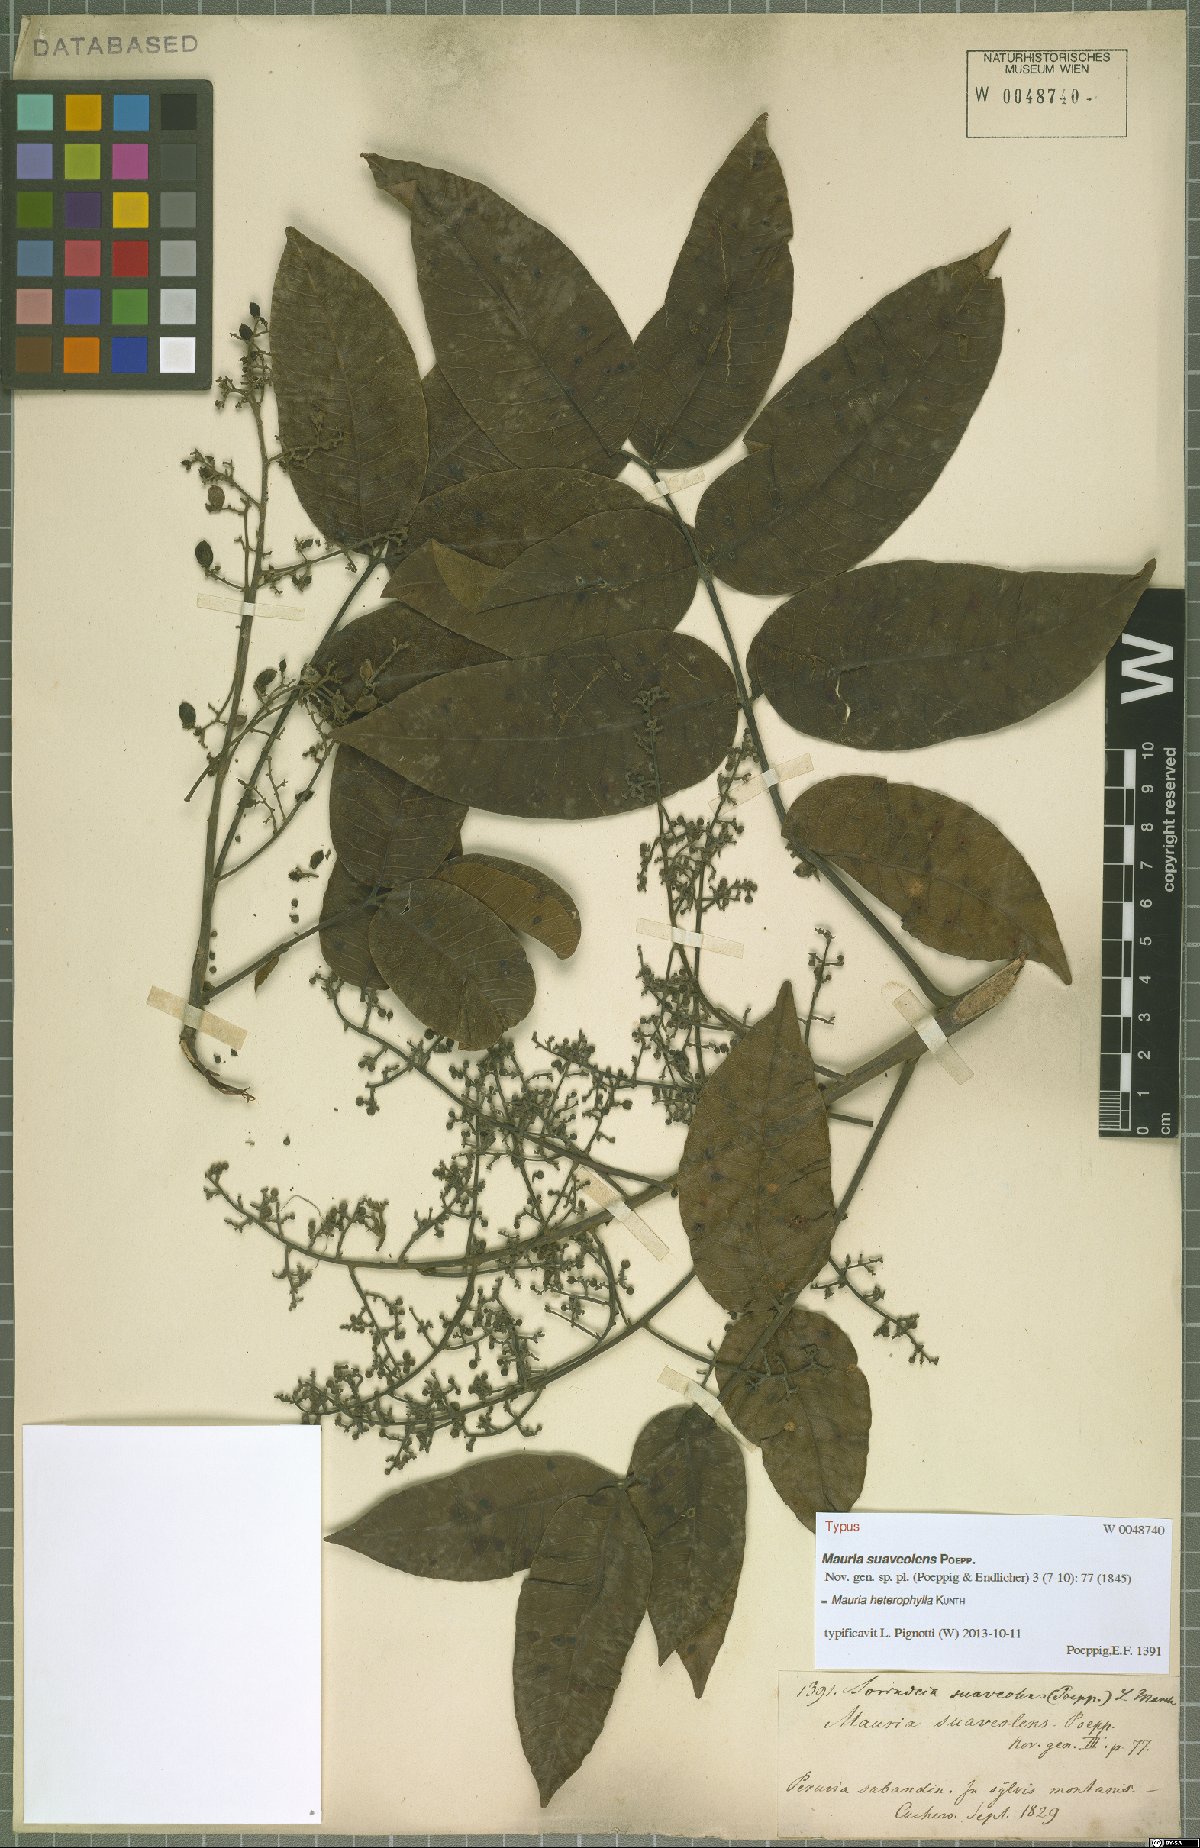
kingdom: Plantae
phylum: Tracheophyta
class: Magnoliopsida
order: Sapindales
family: Anacardiaceae
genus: Mauria
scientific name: Mauria heterophylla
